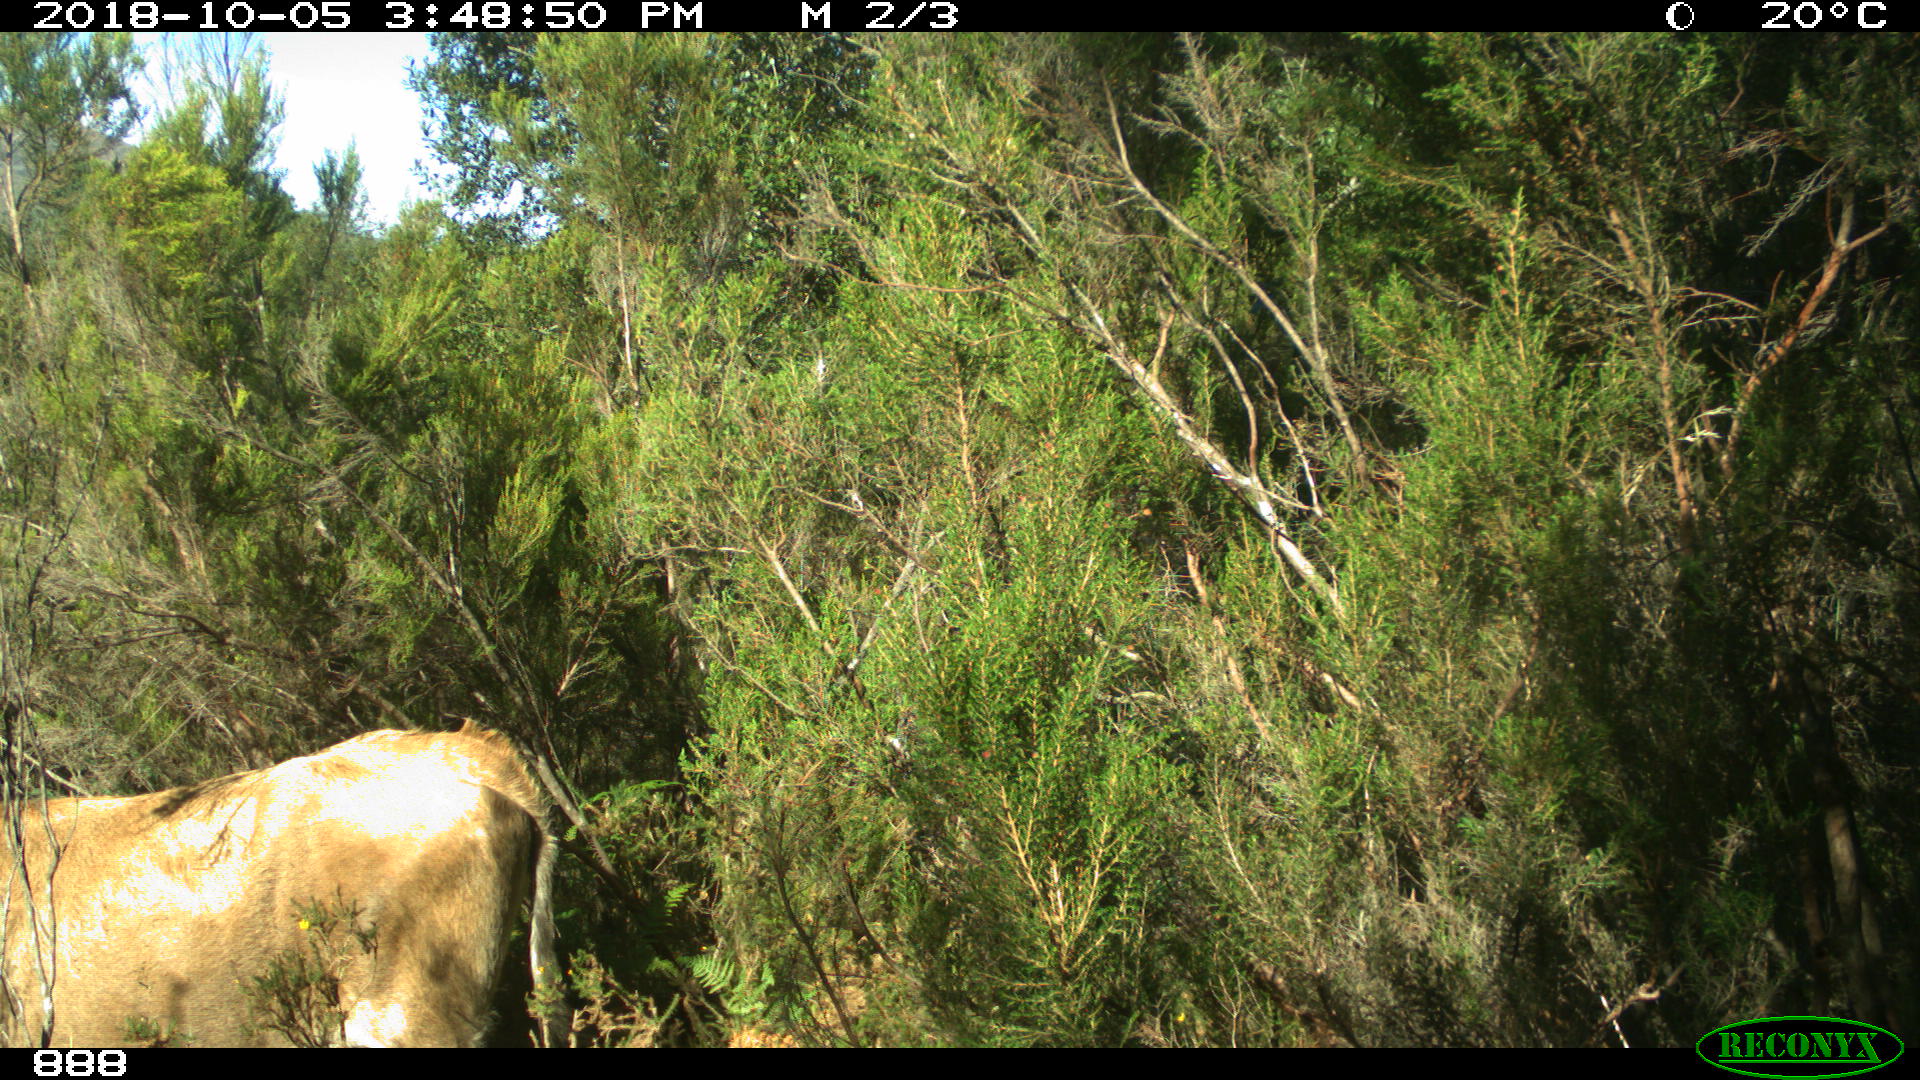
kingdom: Animalia
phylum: Chordata
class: Mammalia
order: Artiodactyla
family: Bovidae
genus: Bos
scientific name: Bos taurus
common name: Domesticated cattle
